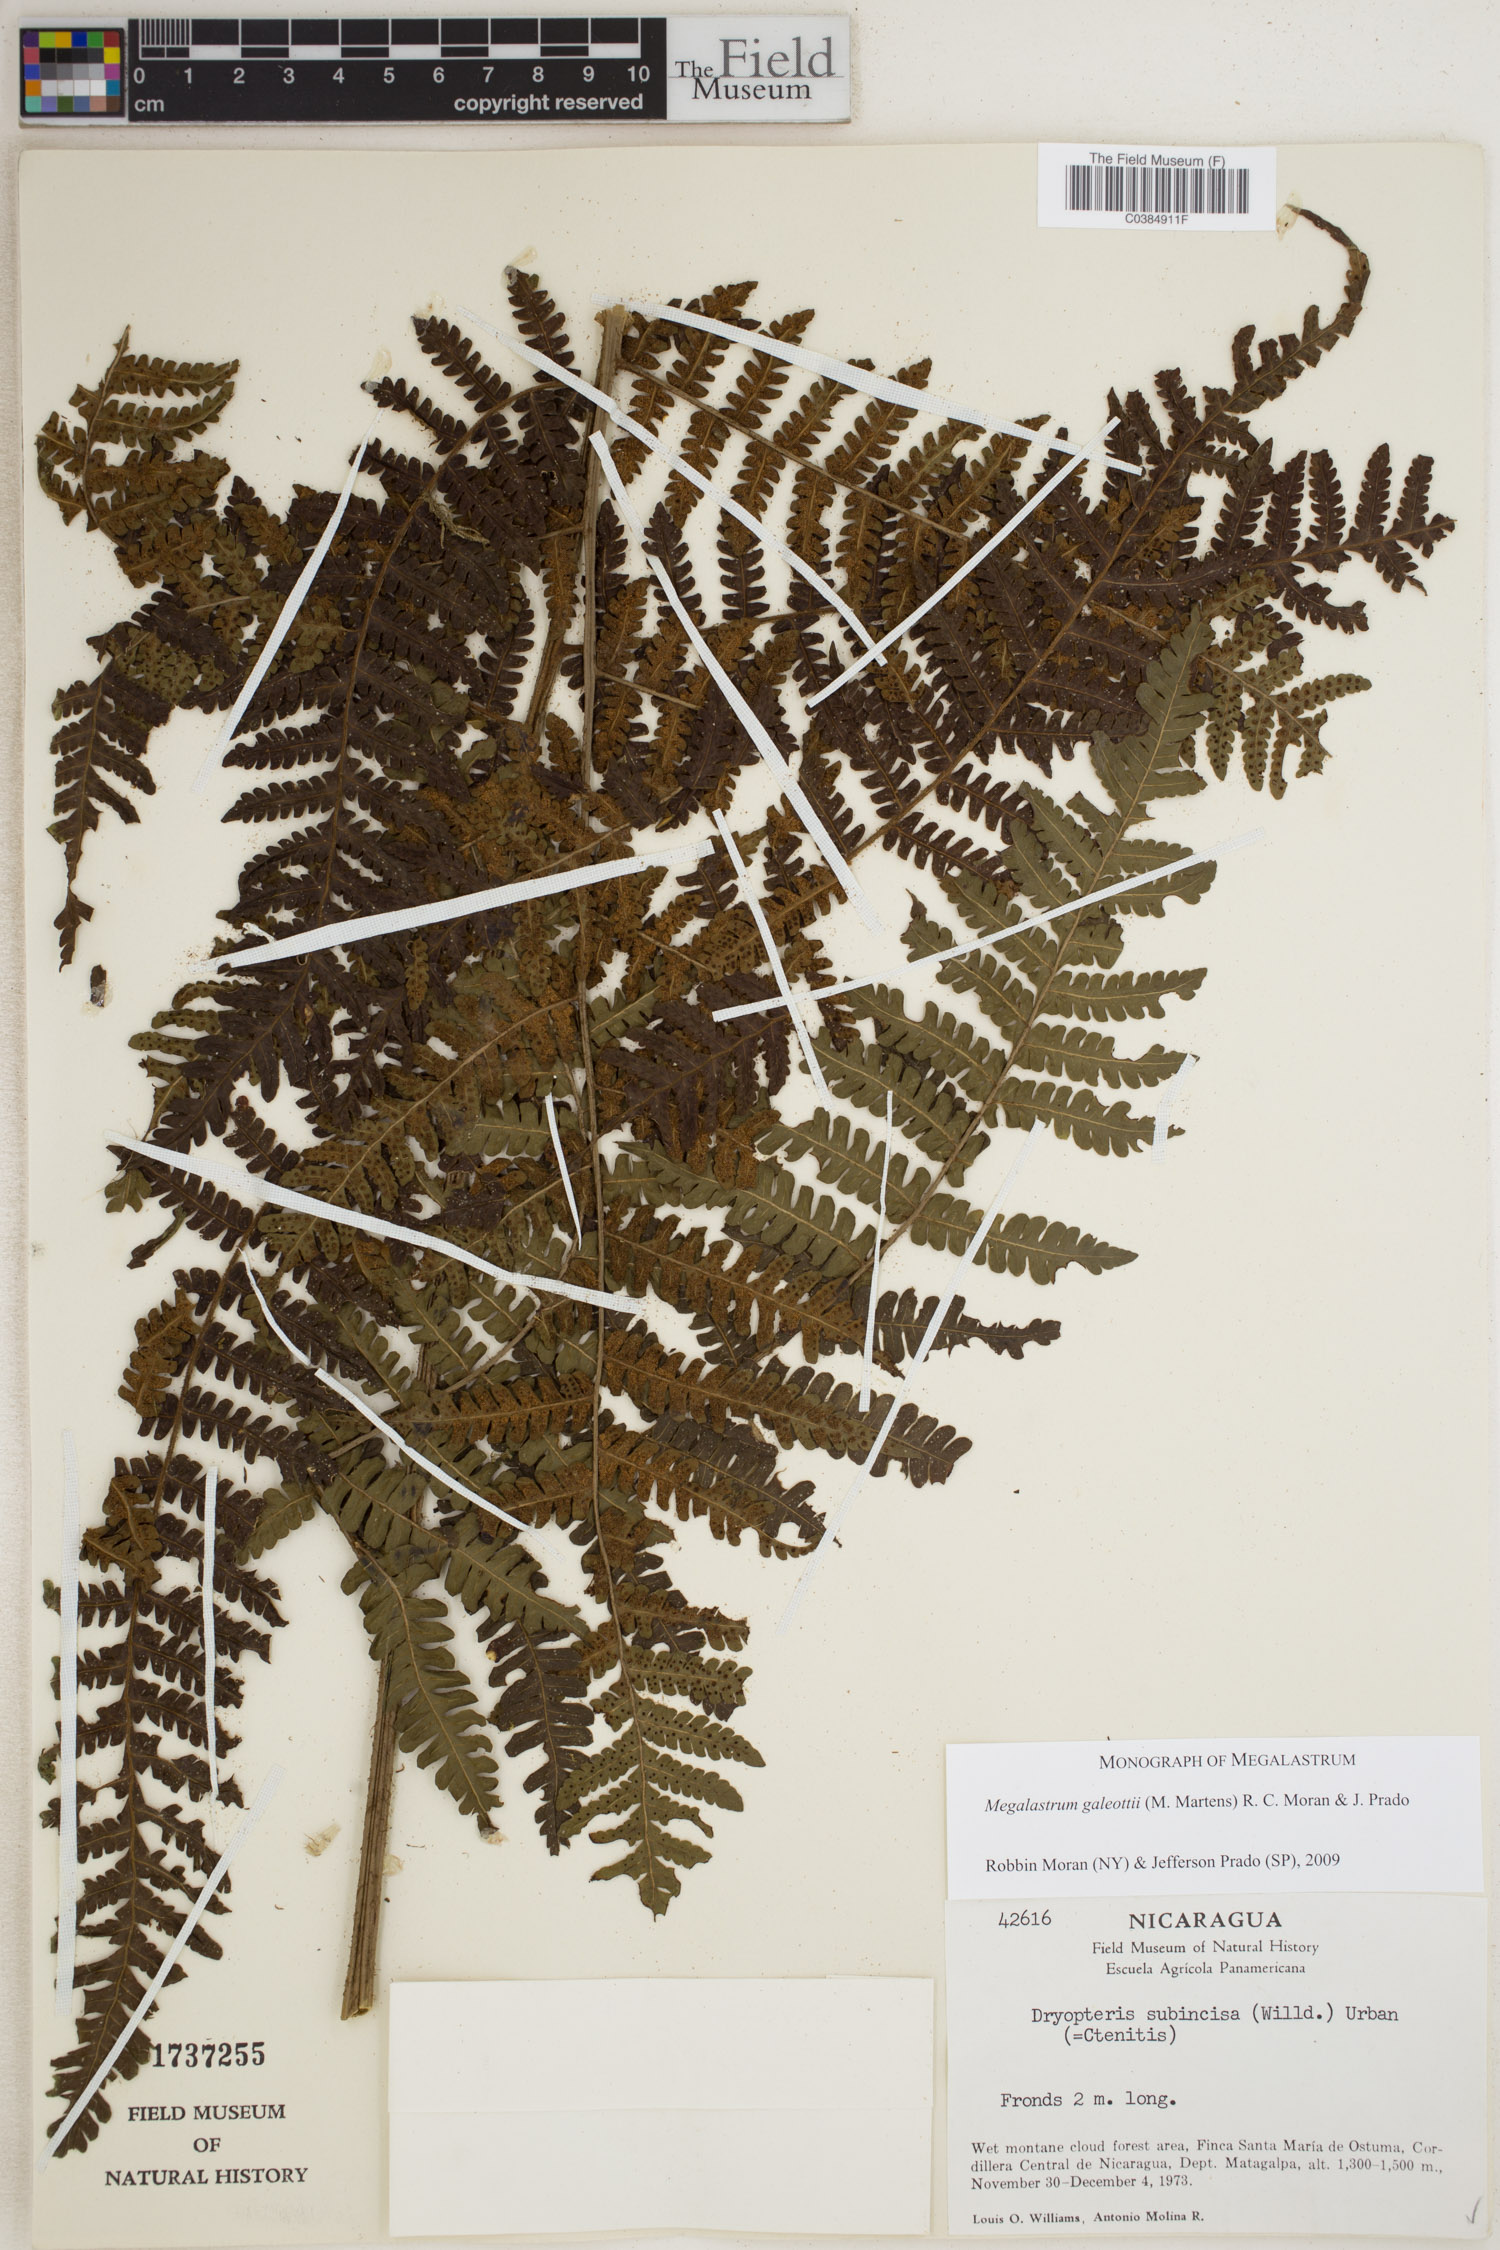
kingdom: Plantae
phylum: Tracheophyta
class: Polypodiopsida
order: Polypodiales
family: Dryopteridaceae
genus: Megalastrum
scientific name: Megalastrum galeottii
